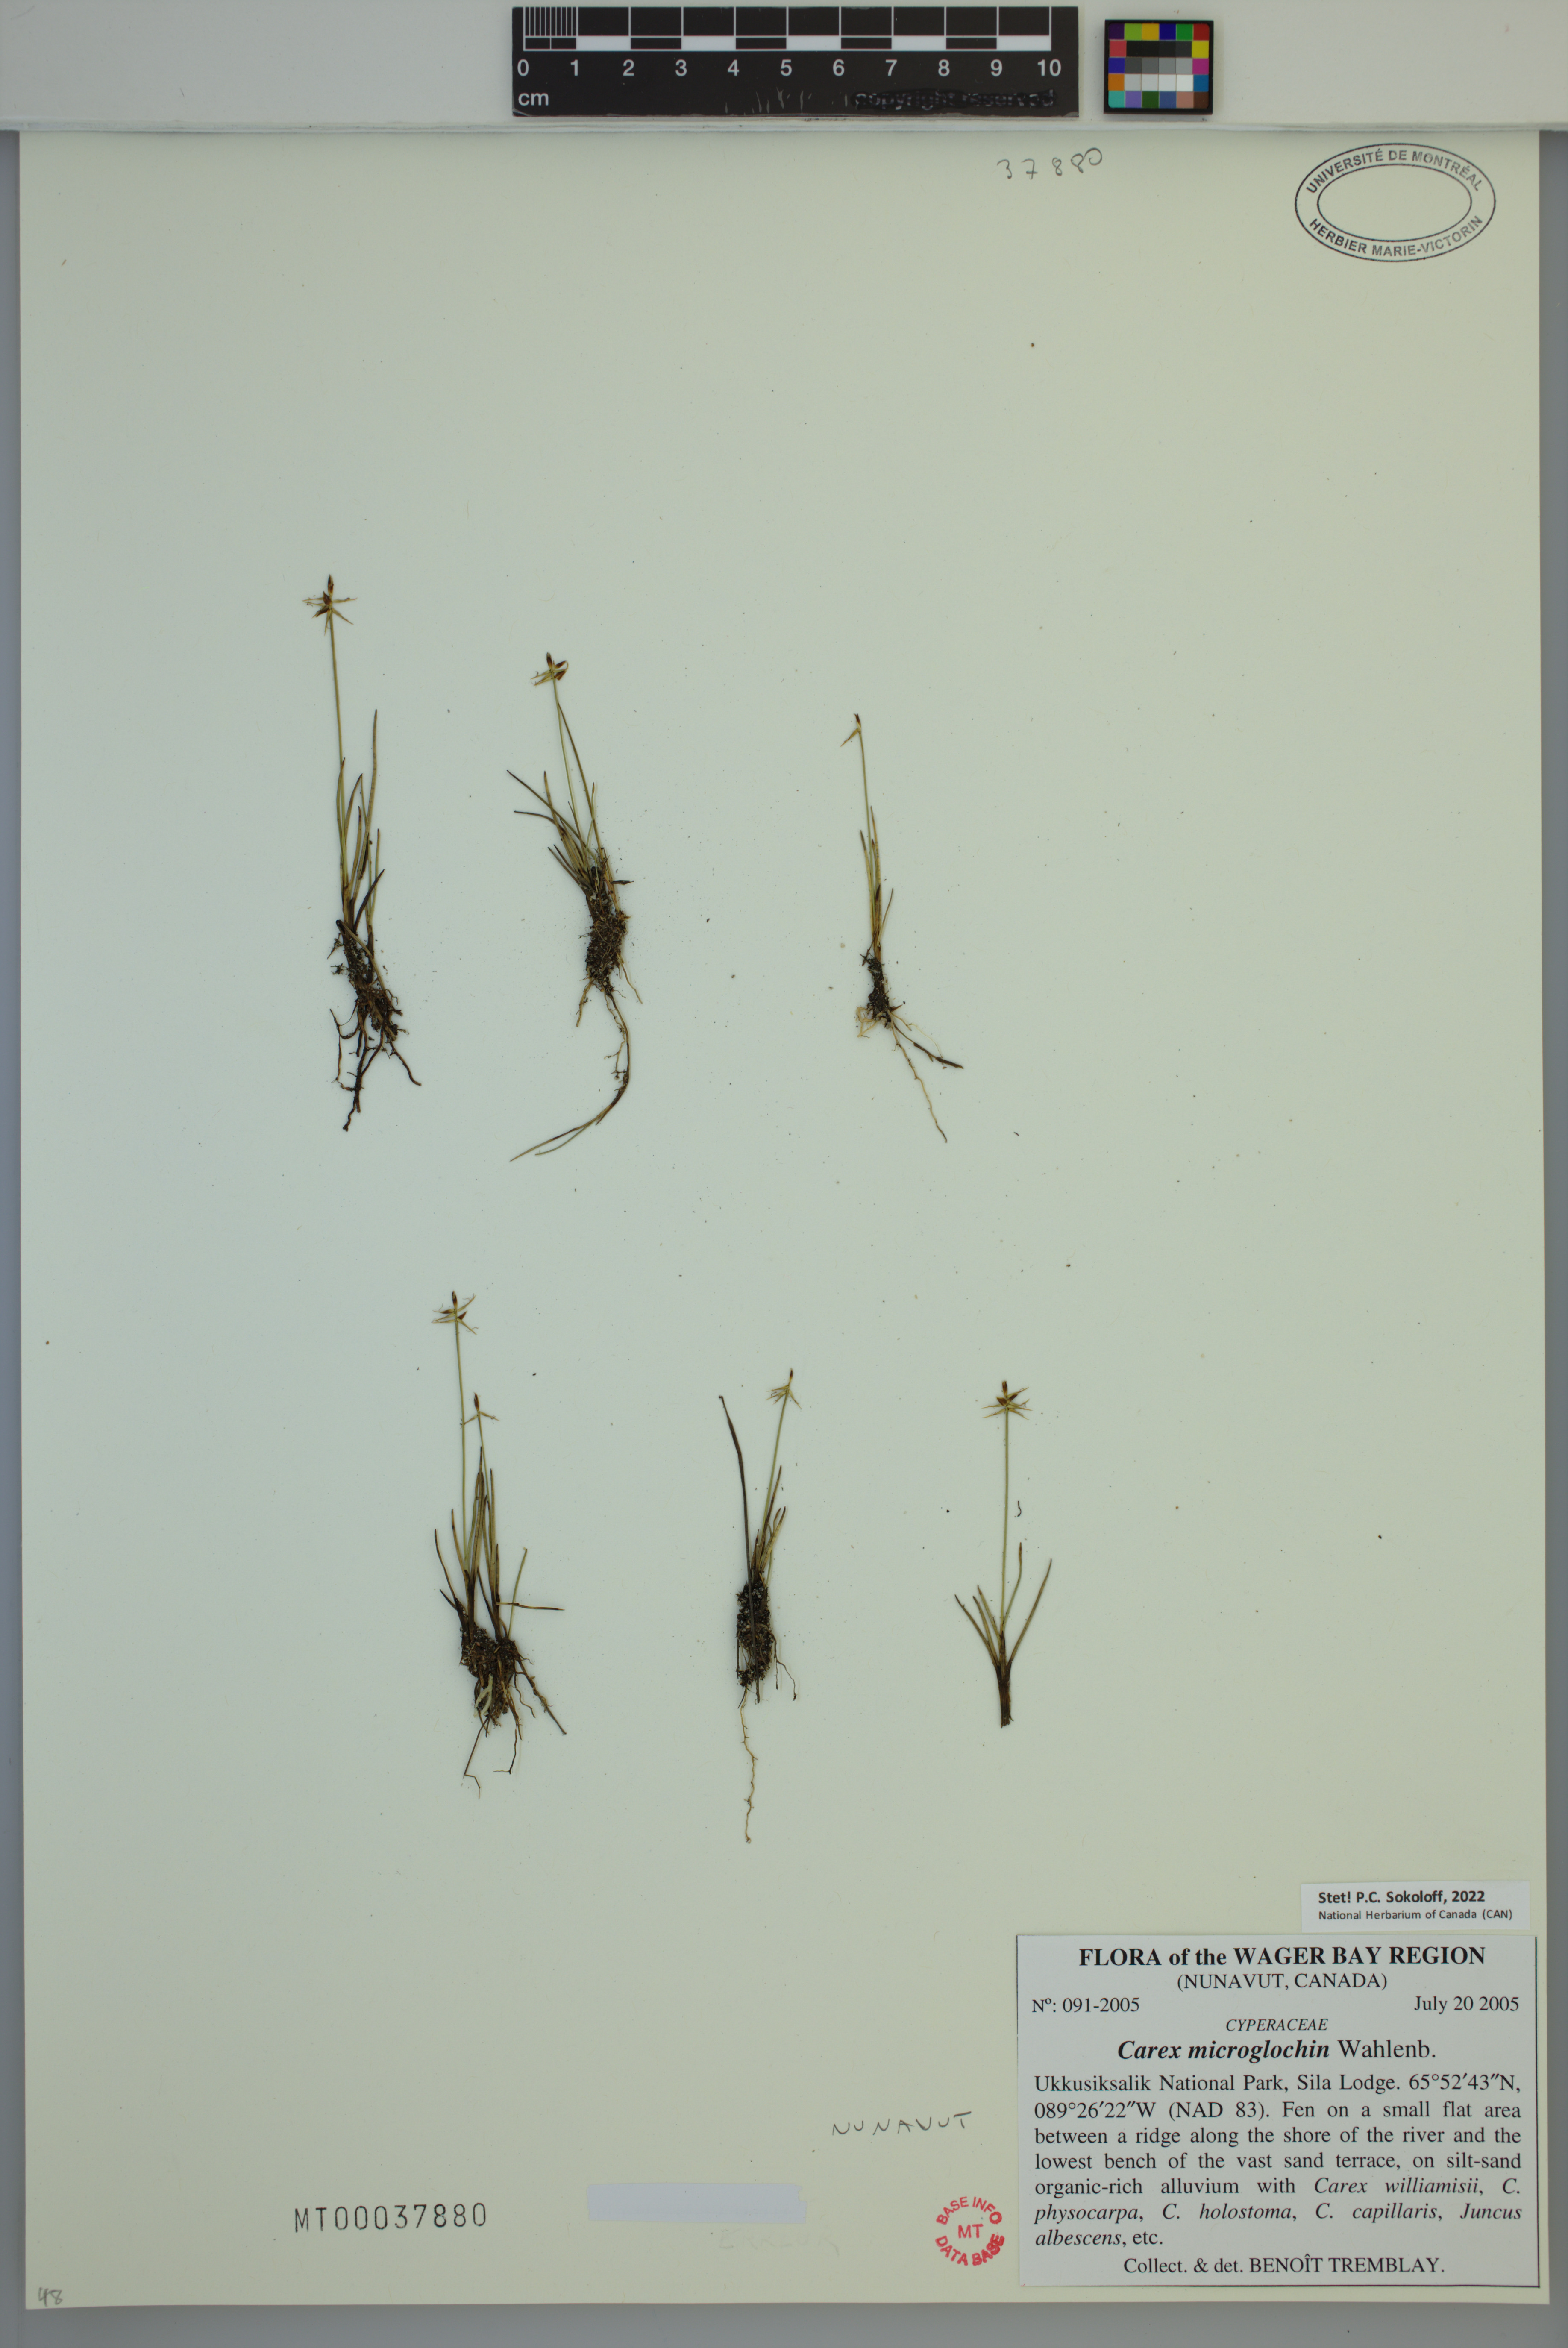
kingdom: Plantae
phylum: Tracheophyta
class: Liliopsida
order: Poales
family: Cyperaceae
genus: Carex
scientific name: Carex microglochin
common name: Bristle sedge
